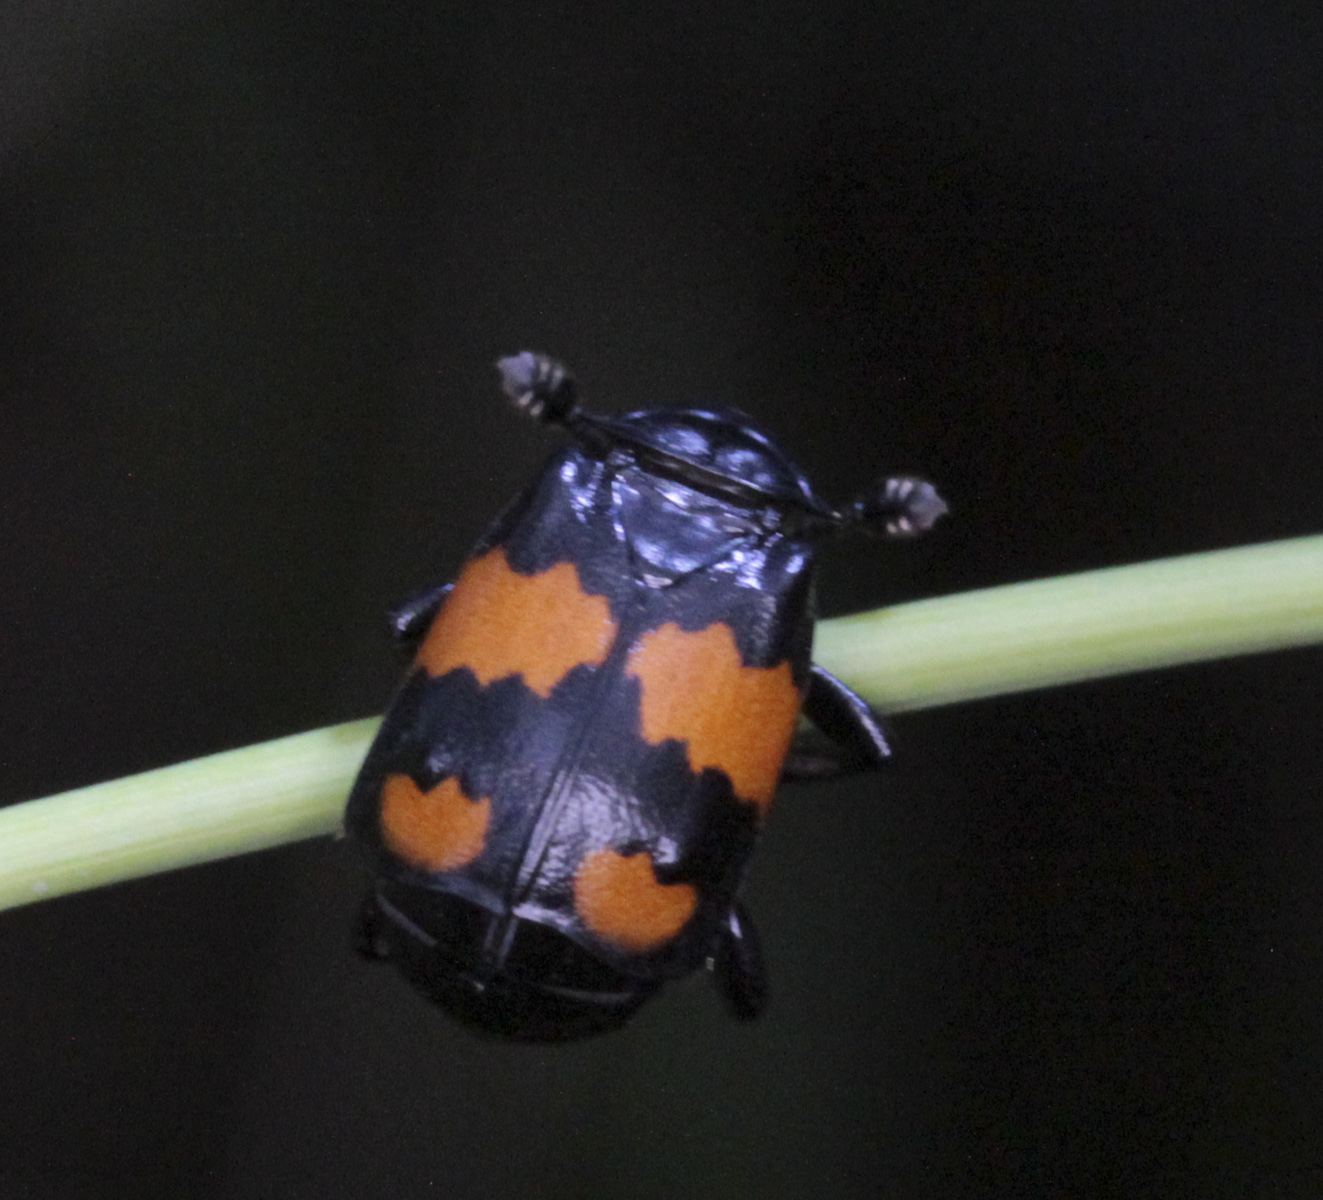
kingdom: Animalia
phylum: Arthropoda
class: Insecta
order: Coleoptera
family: Staphylinidae
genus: Nicrophorus
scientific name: Nicrophorus vespilloides
